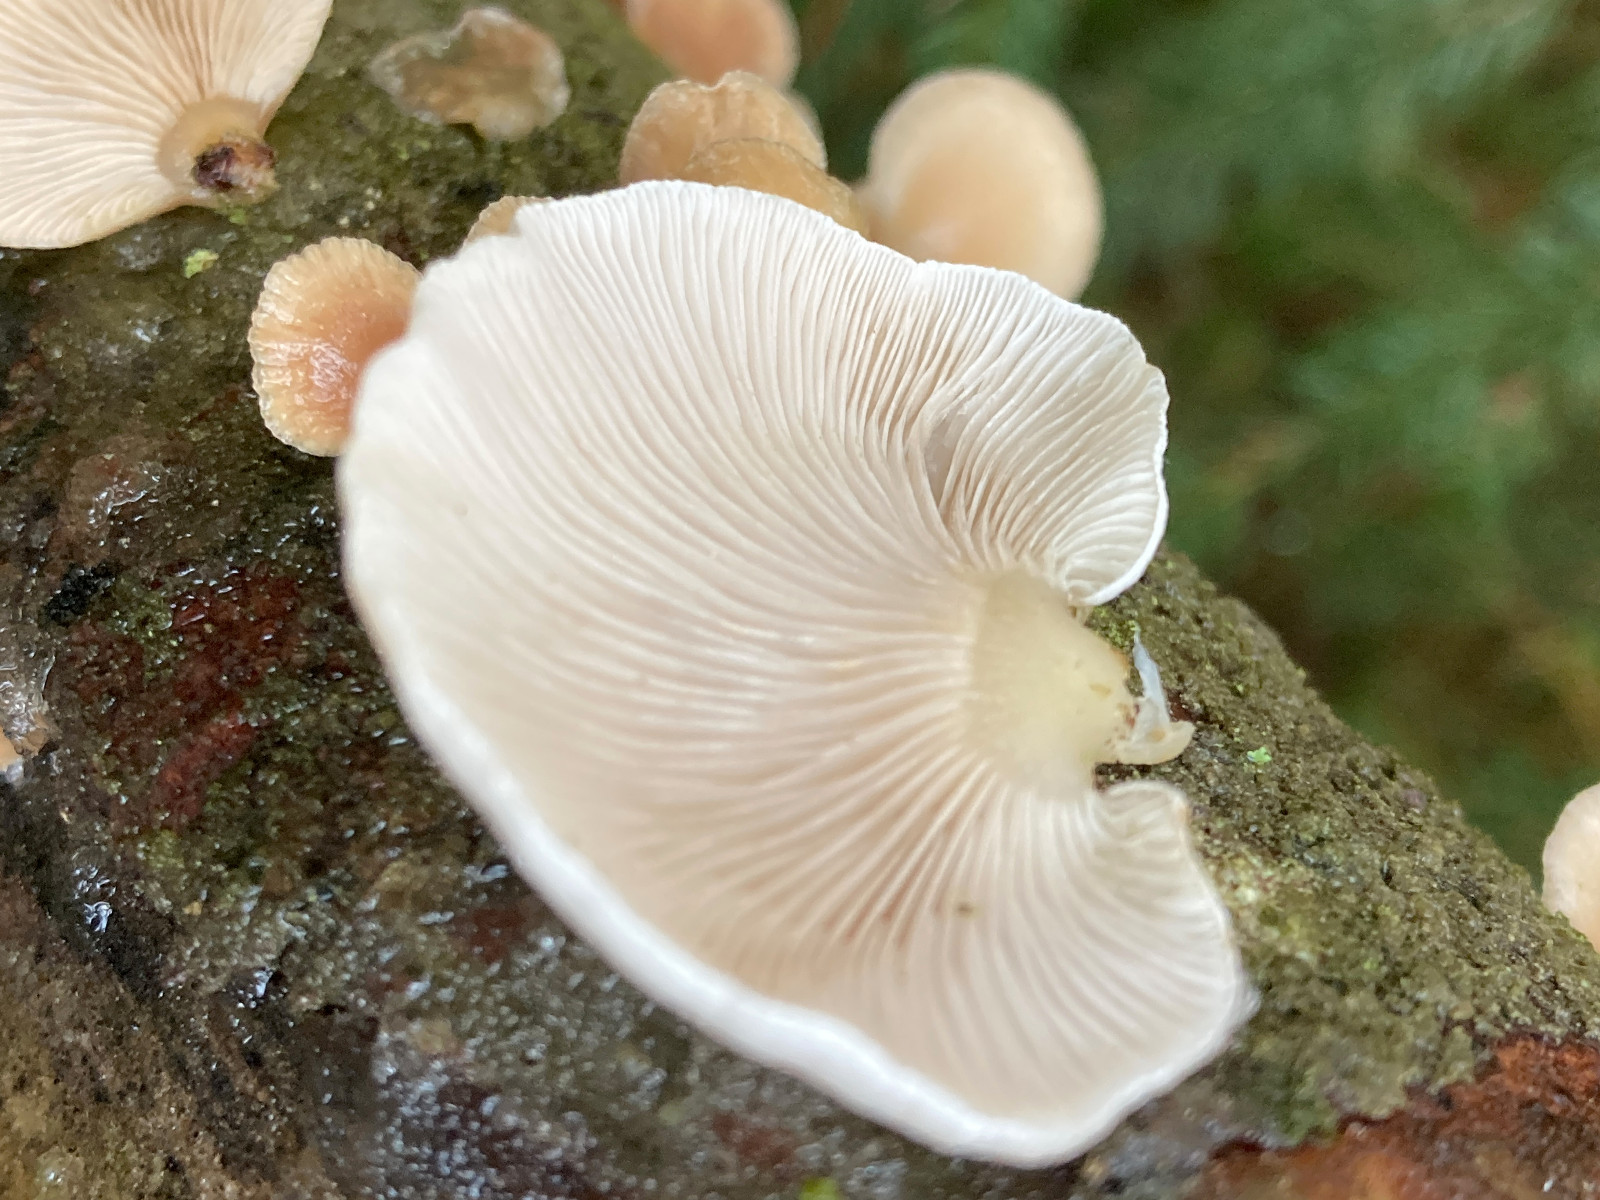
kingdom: Fungi
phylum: Basidiomycota
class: Agaricomycetes
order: Agaricales
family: Mycenaceae
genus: Panellus
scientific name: Panellus mitis
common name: mild epaulethat
